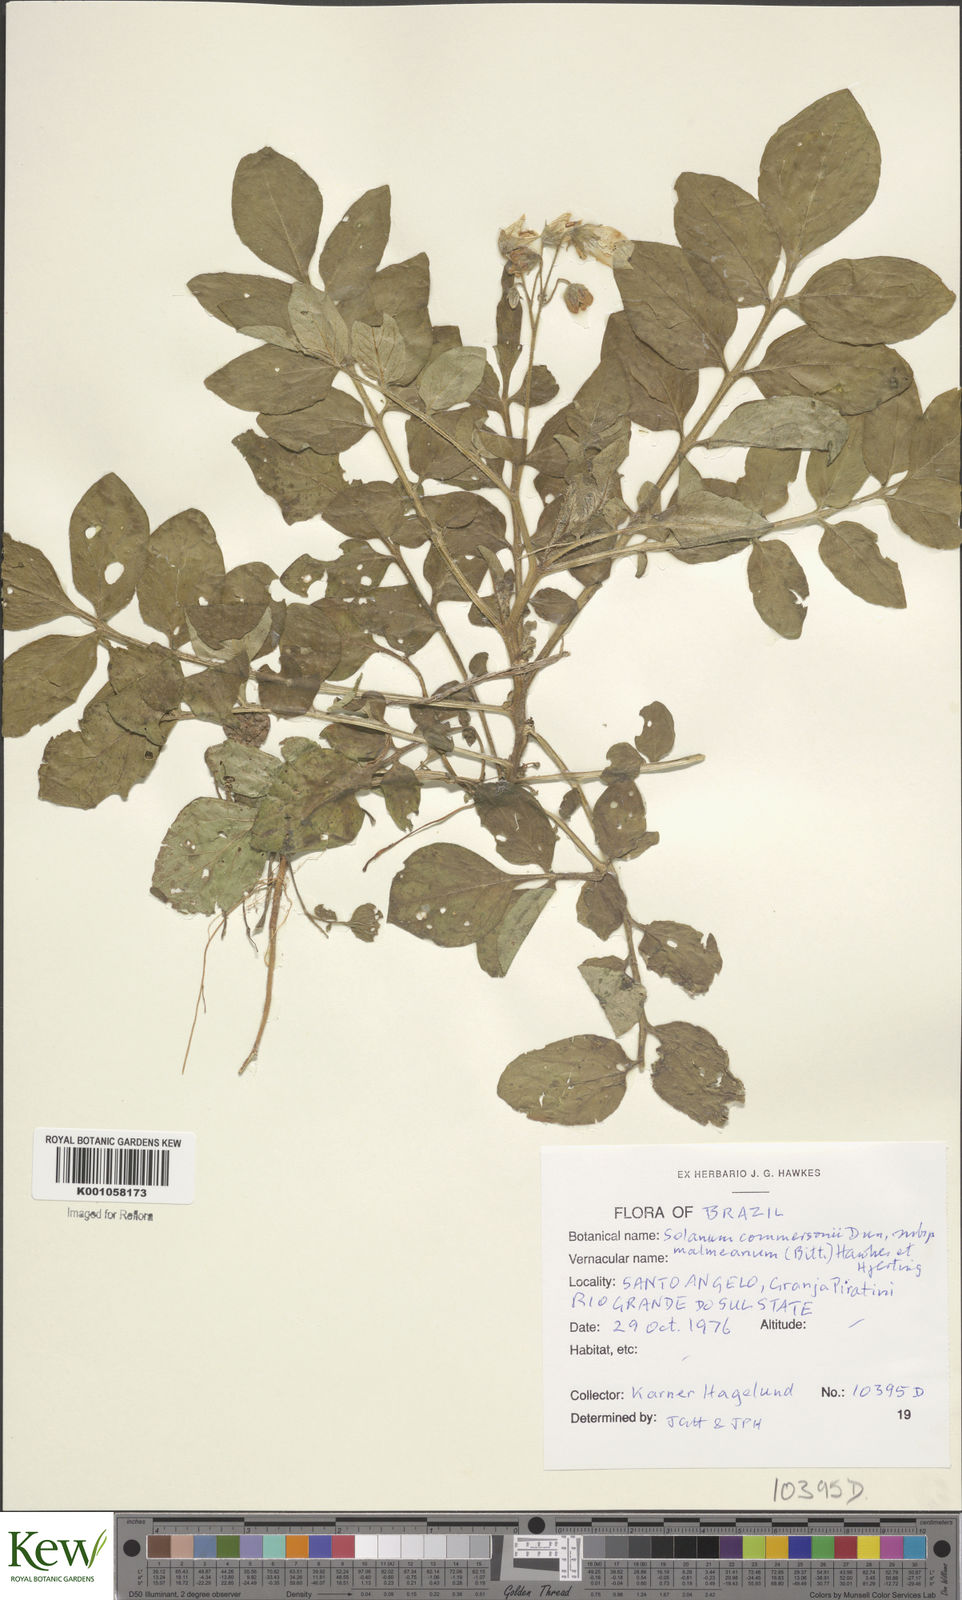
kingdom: Plantae
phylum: Tracheophyta
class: Magnoliopsida
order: Solanales
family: Solanaceae
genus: Solanum
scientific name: Solanum malmeanum
